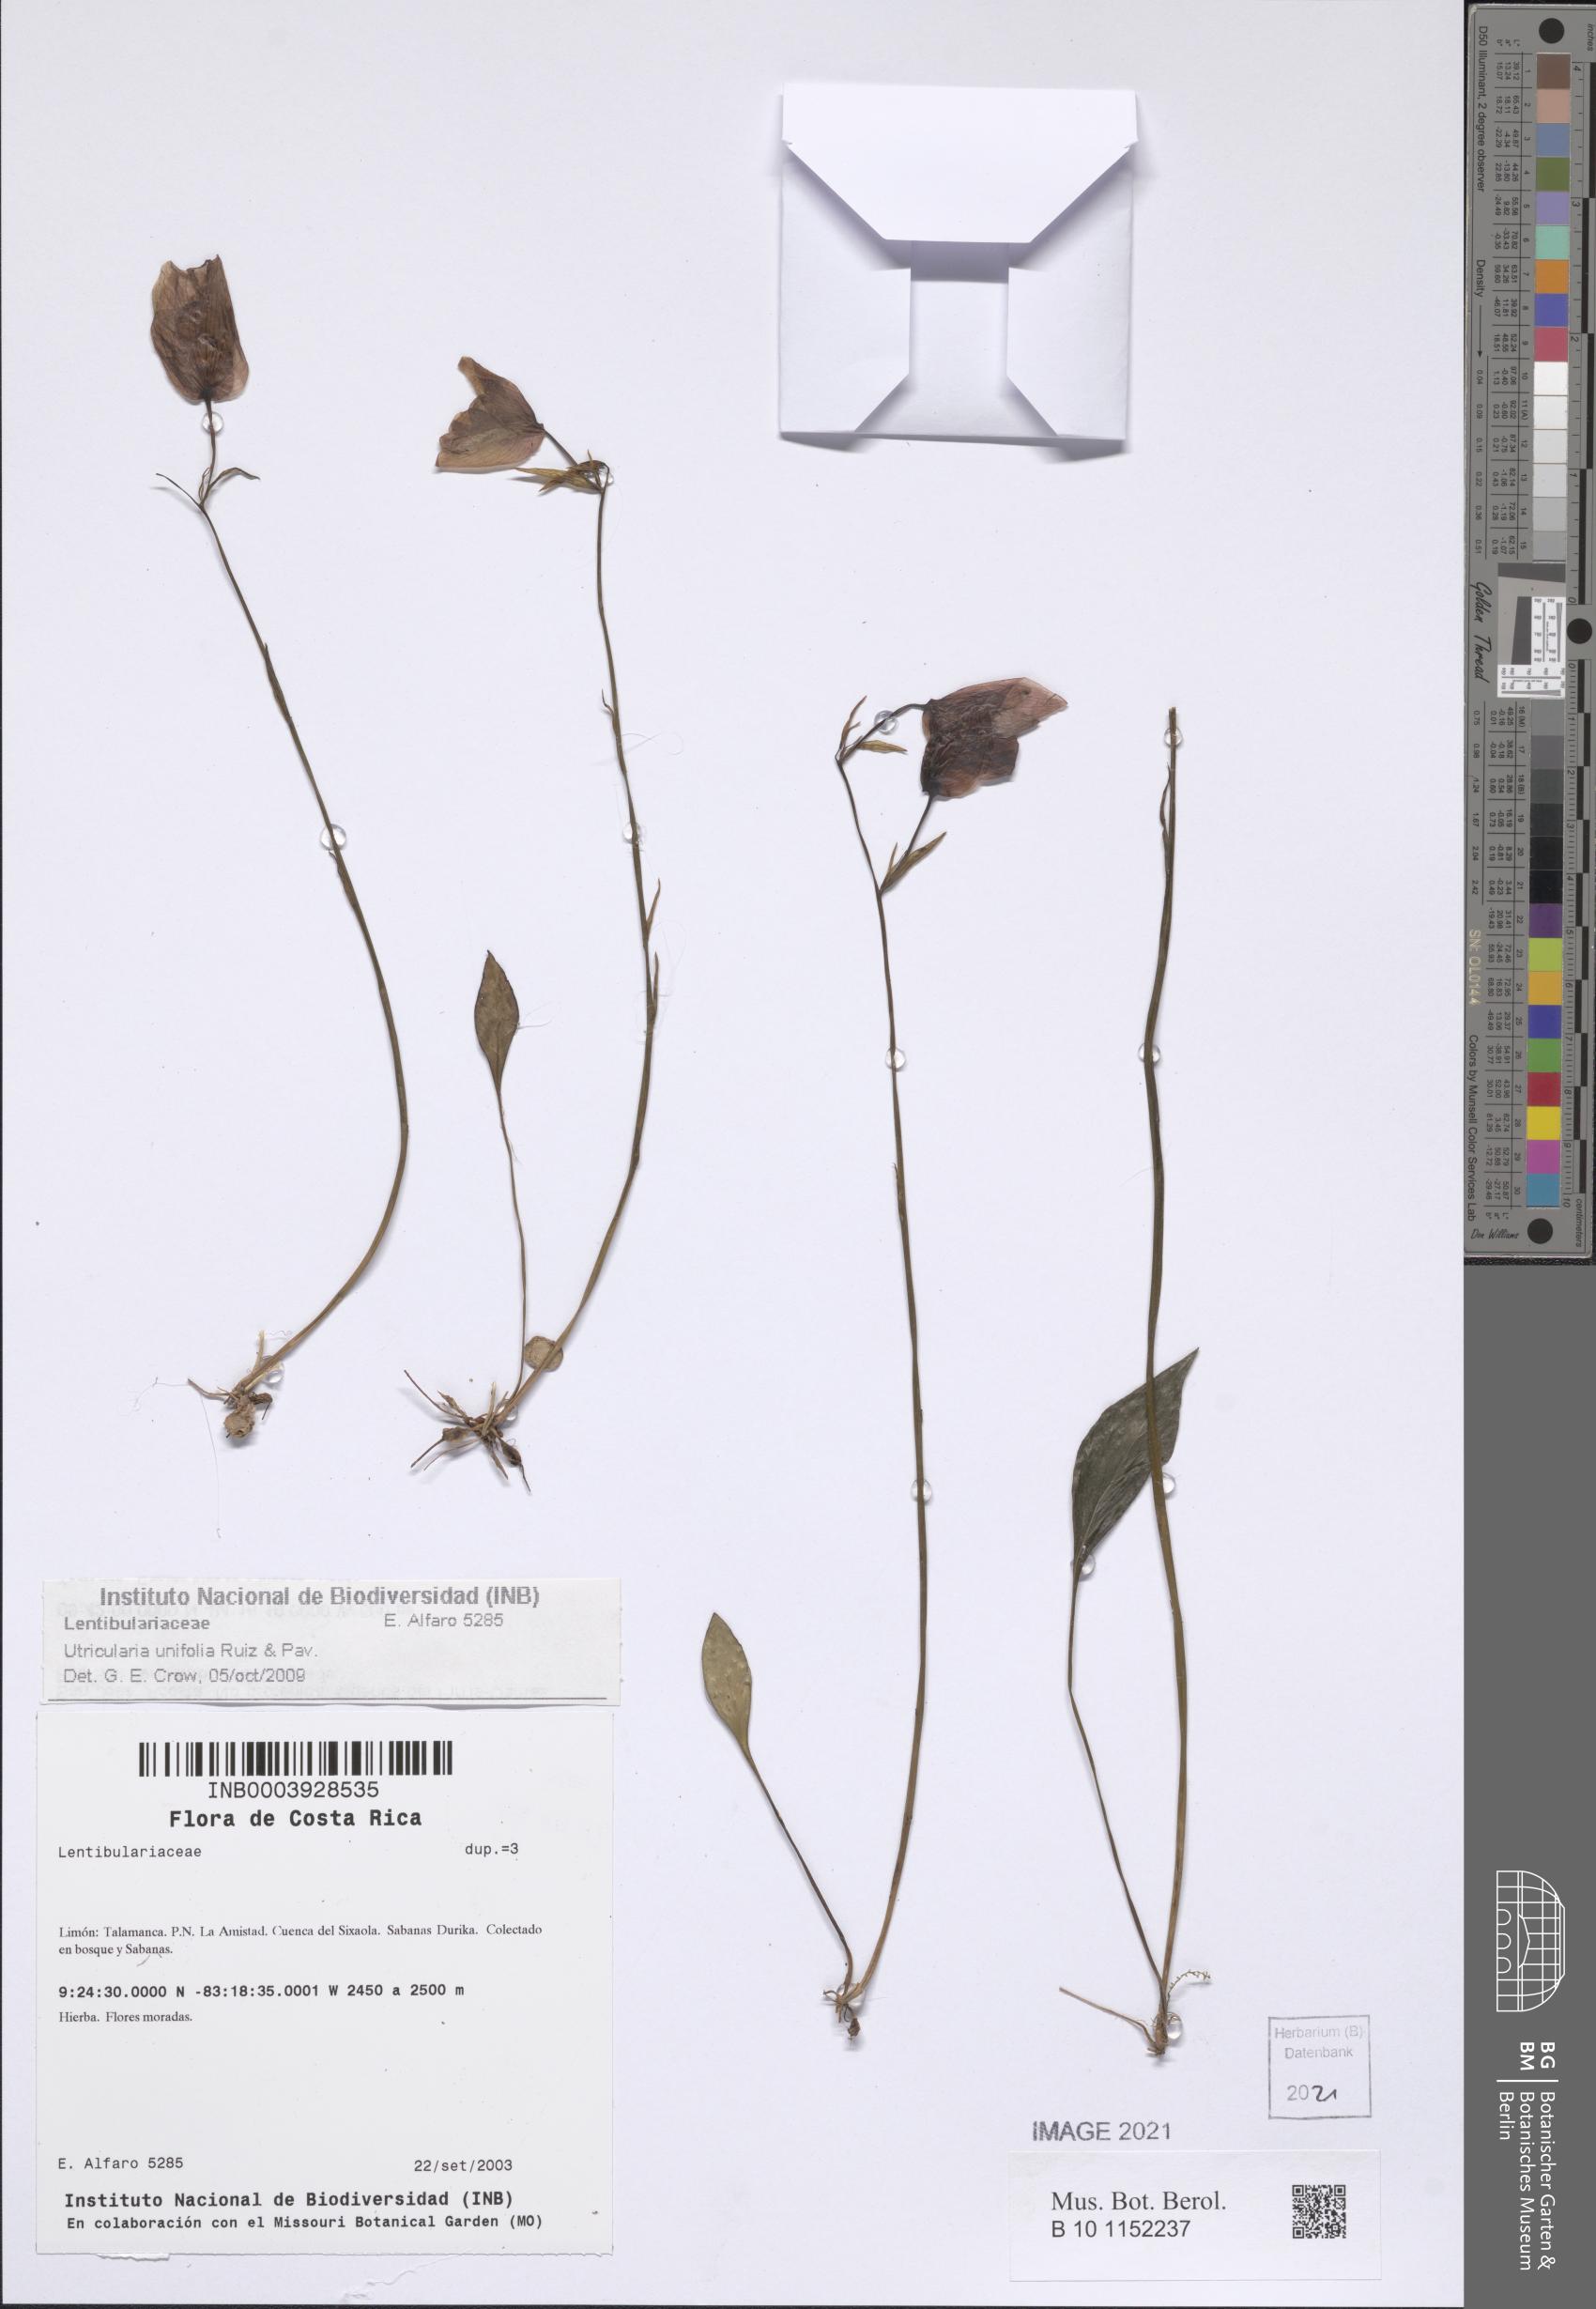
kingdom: Plantae
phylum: Tracheophyta
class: Magnoliopsida
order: Lamiales
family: Lentibulariaceae
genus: Utricularia
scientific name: Utricularia unifolia
